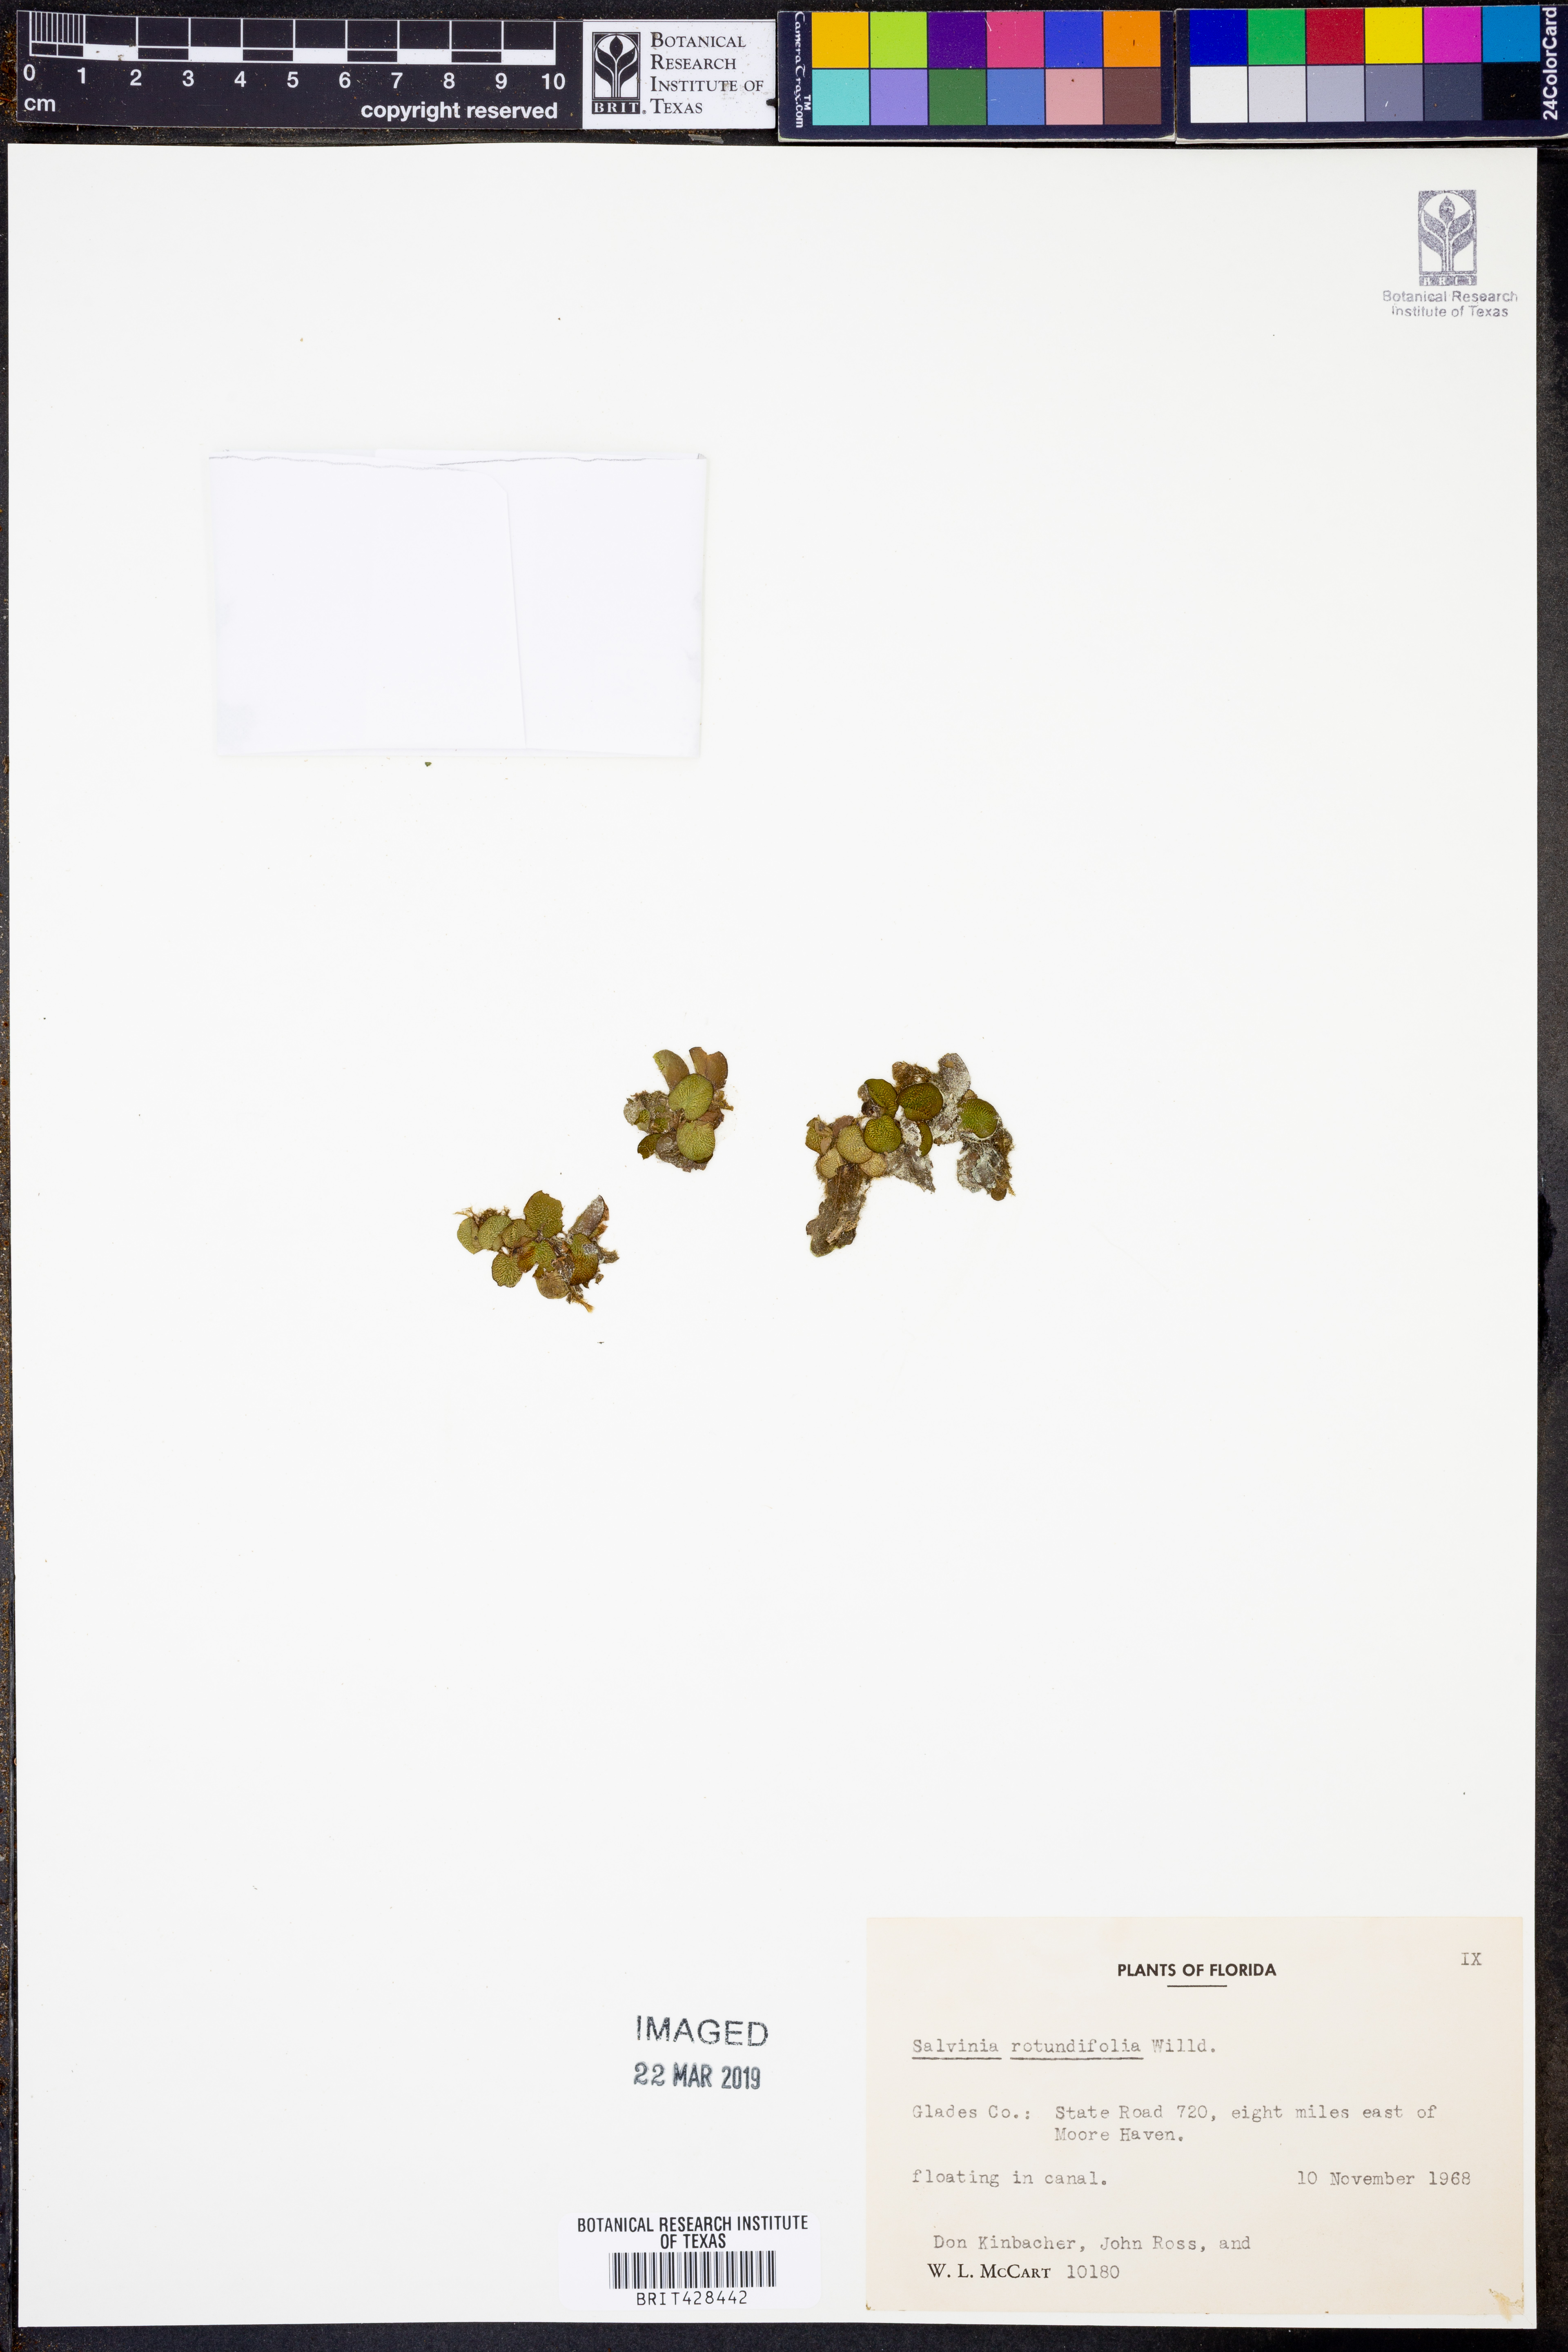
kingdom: Plantae
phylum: Tracheophyta
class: Polypodiopsida
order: Salviniales
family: Salviniaceae
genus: Salvinia
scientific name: Salvinia auriculata
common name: African payal
